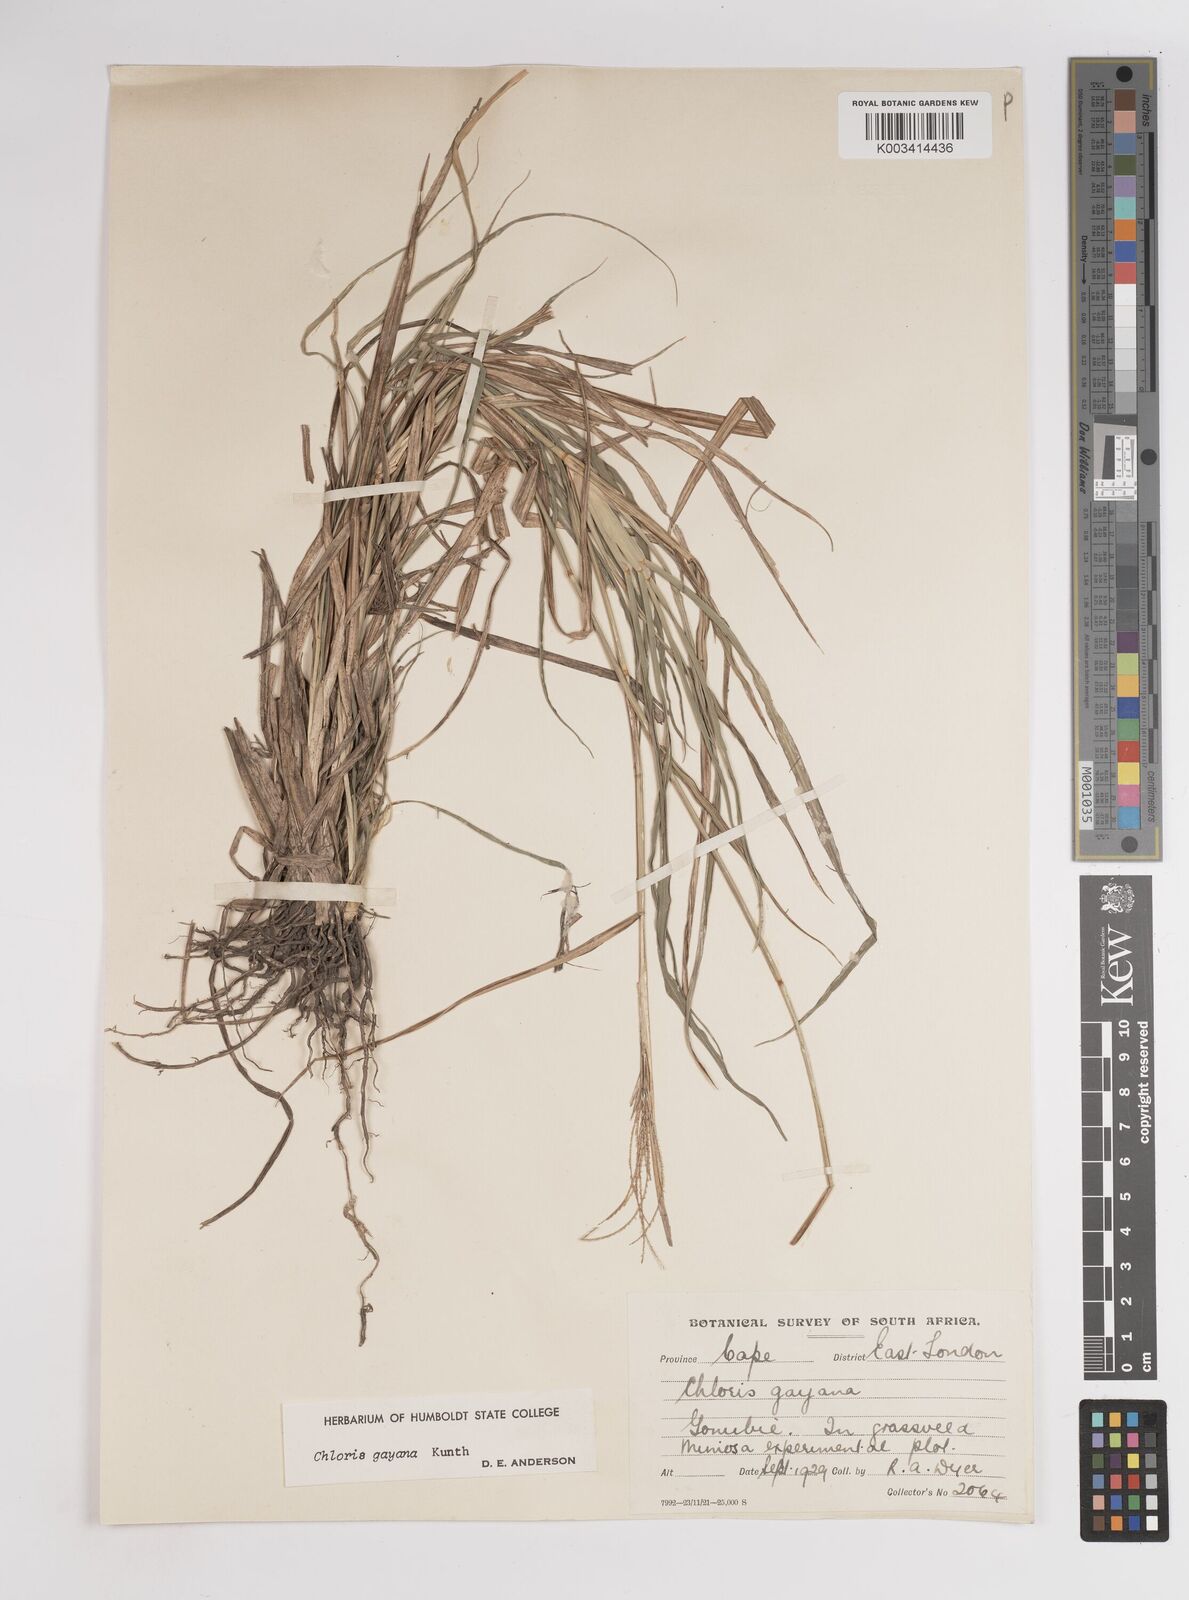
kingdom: Plantae
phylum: Tracheophyta
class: Liliopsida
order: Poales
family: Poaceae
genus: Chloris
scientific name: Chloris gayana
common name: Rhodes grass
